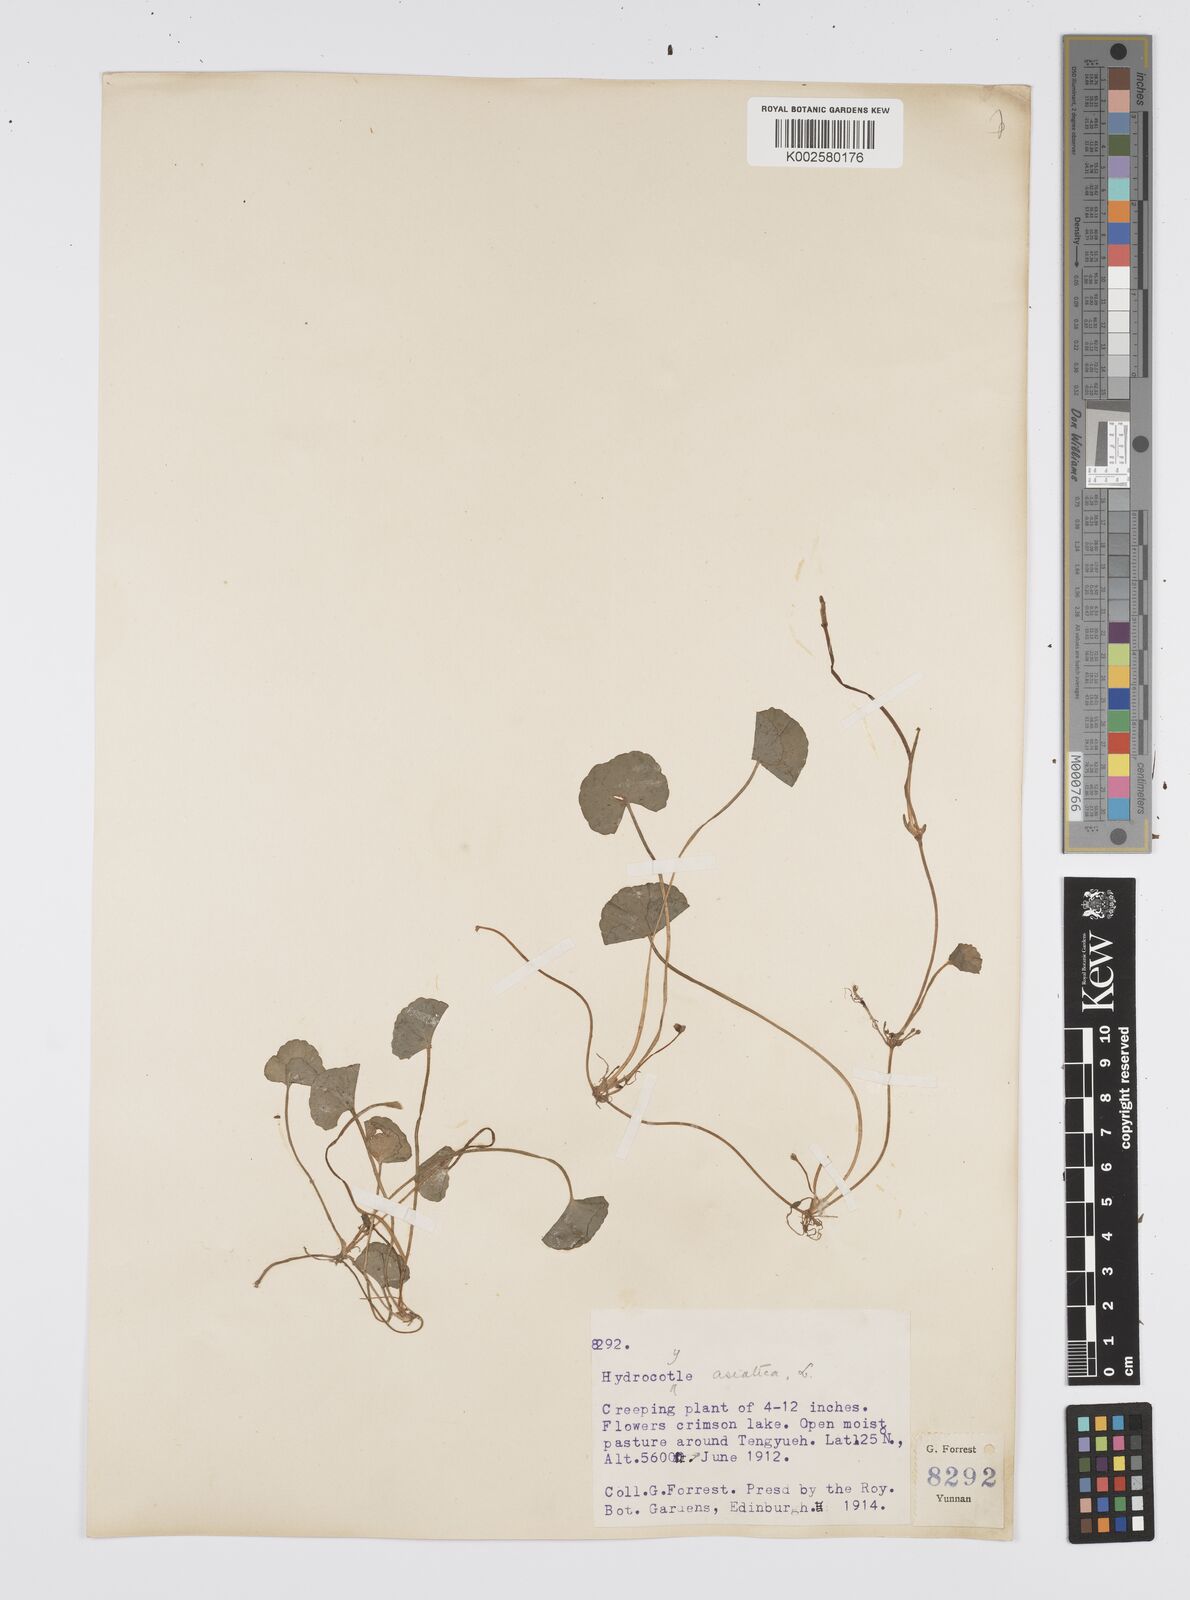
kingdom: Plantae
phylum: Tracheophyta
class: Magnoliopsida
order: Apiales
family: Apiaceae
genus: Centella
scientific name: Centella asiatica
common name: Spadeleaf
